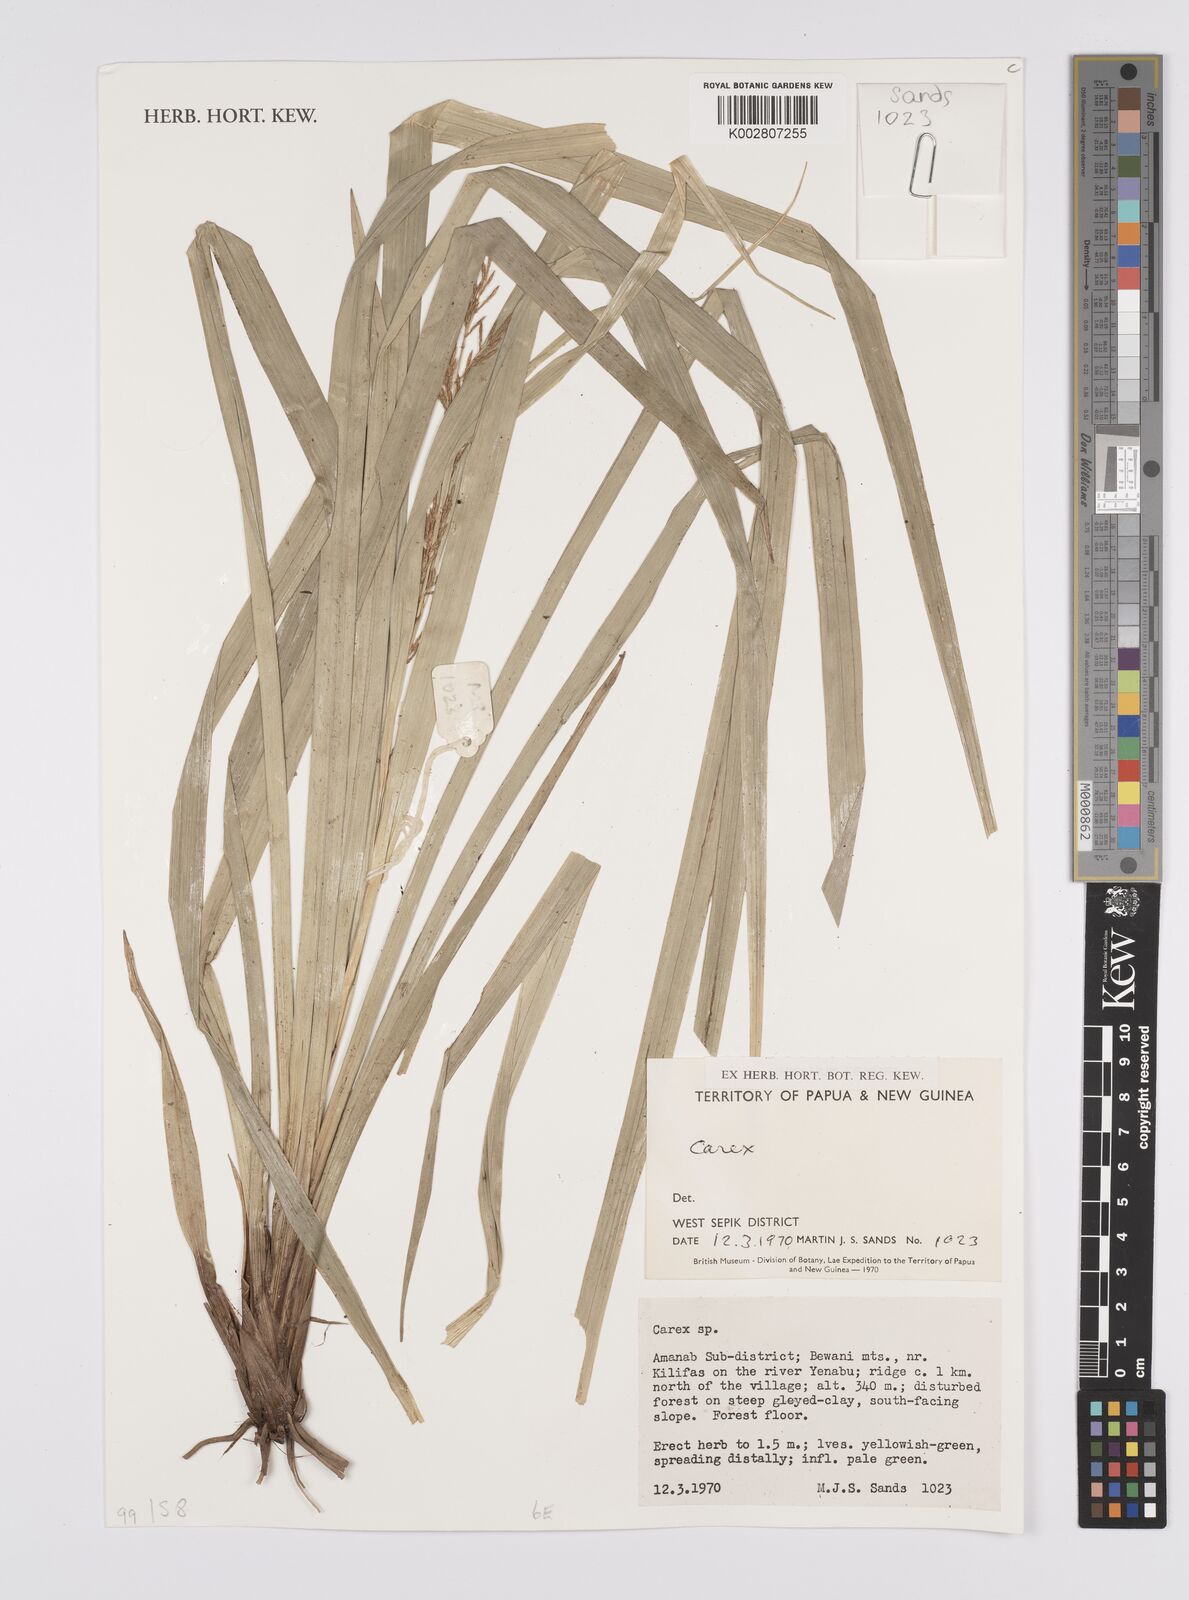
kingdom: Plantae
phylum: Tracheophyta
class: Liliopsida
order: Poales
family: Cyperaceae
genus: Carex
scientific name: Carex
